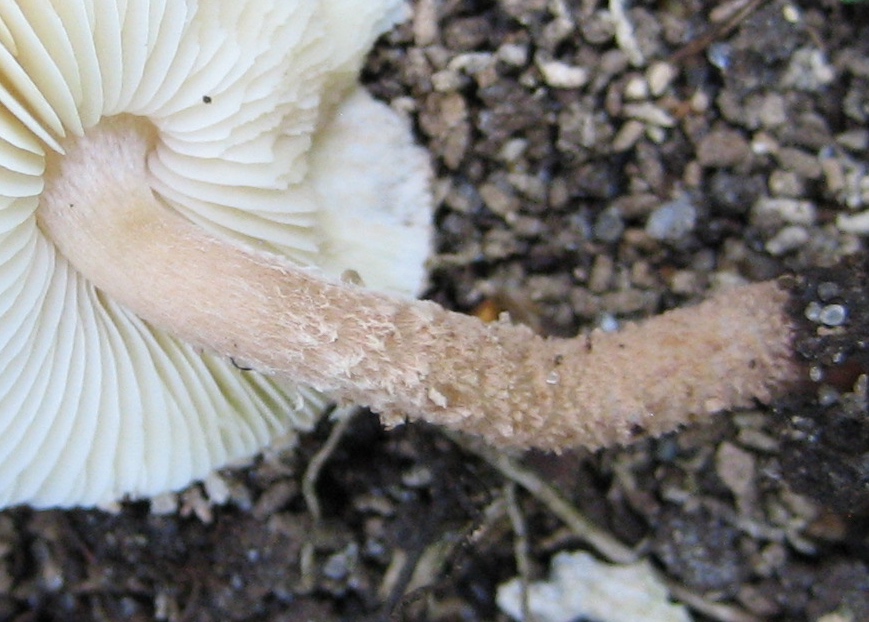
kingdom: Fungi
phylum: Basidiomycota
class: Agaricomycetes
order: Agaricales
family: Agaricaceae
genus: Echinoderma
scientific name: Echinoderma jacobi
